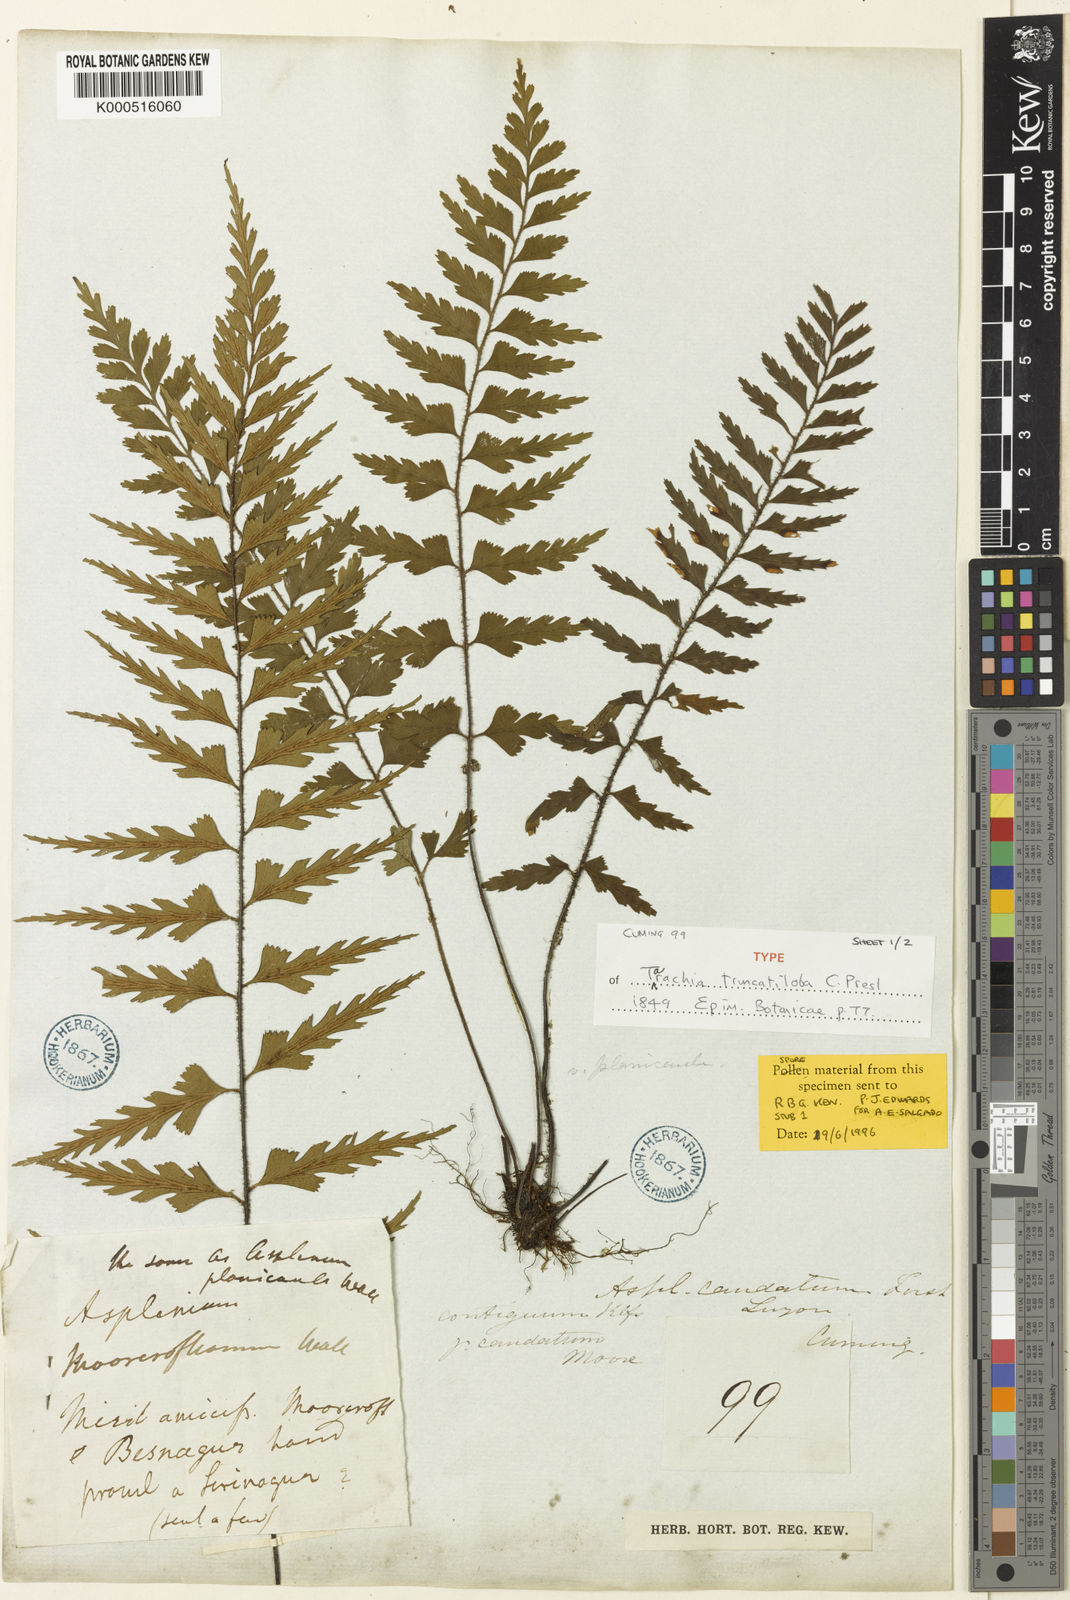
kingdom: Plantae
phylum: Tracheophyta
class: Polypodiopsida
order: Polypodiales
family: Aspleniaceae
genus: Asplenium
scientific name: Asplenium truncatilobum
